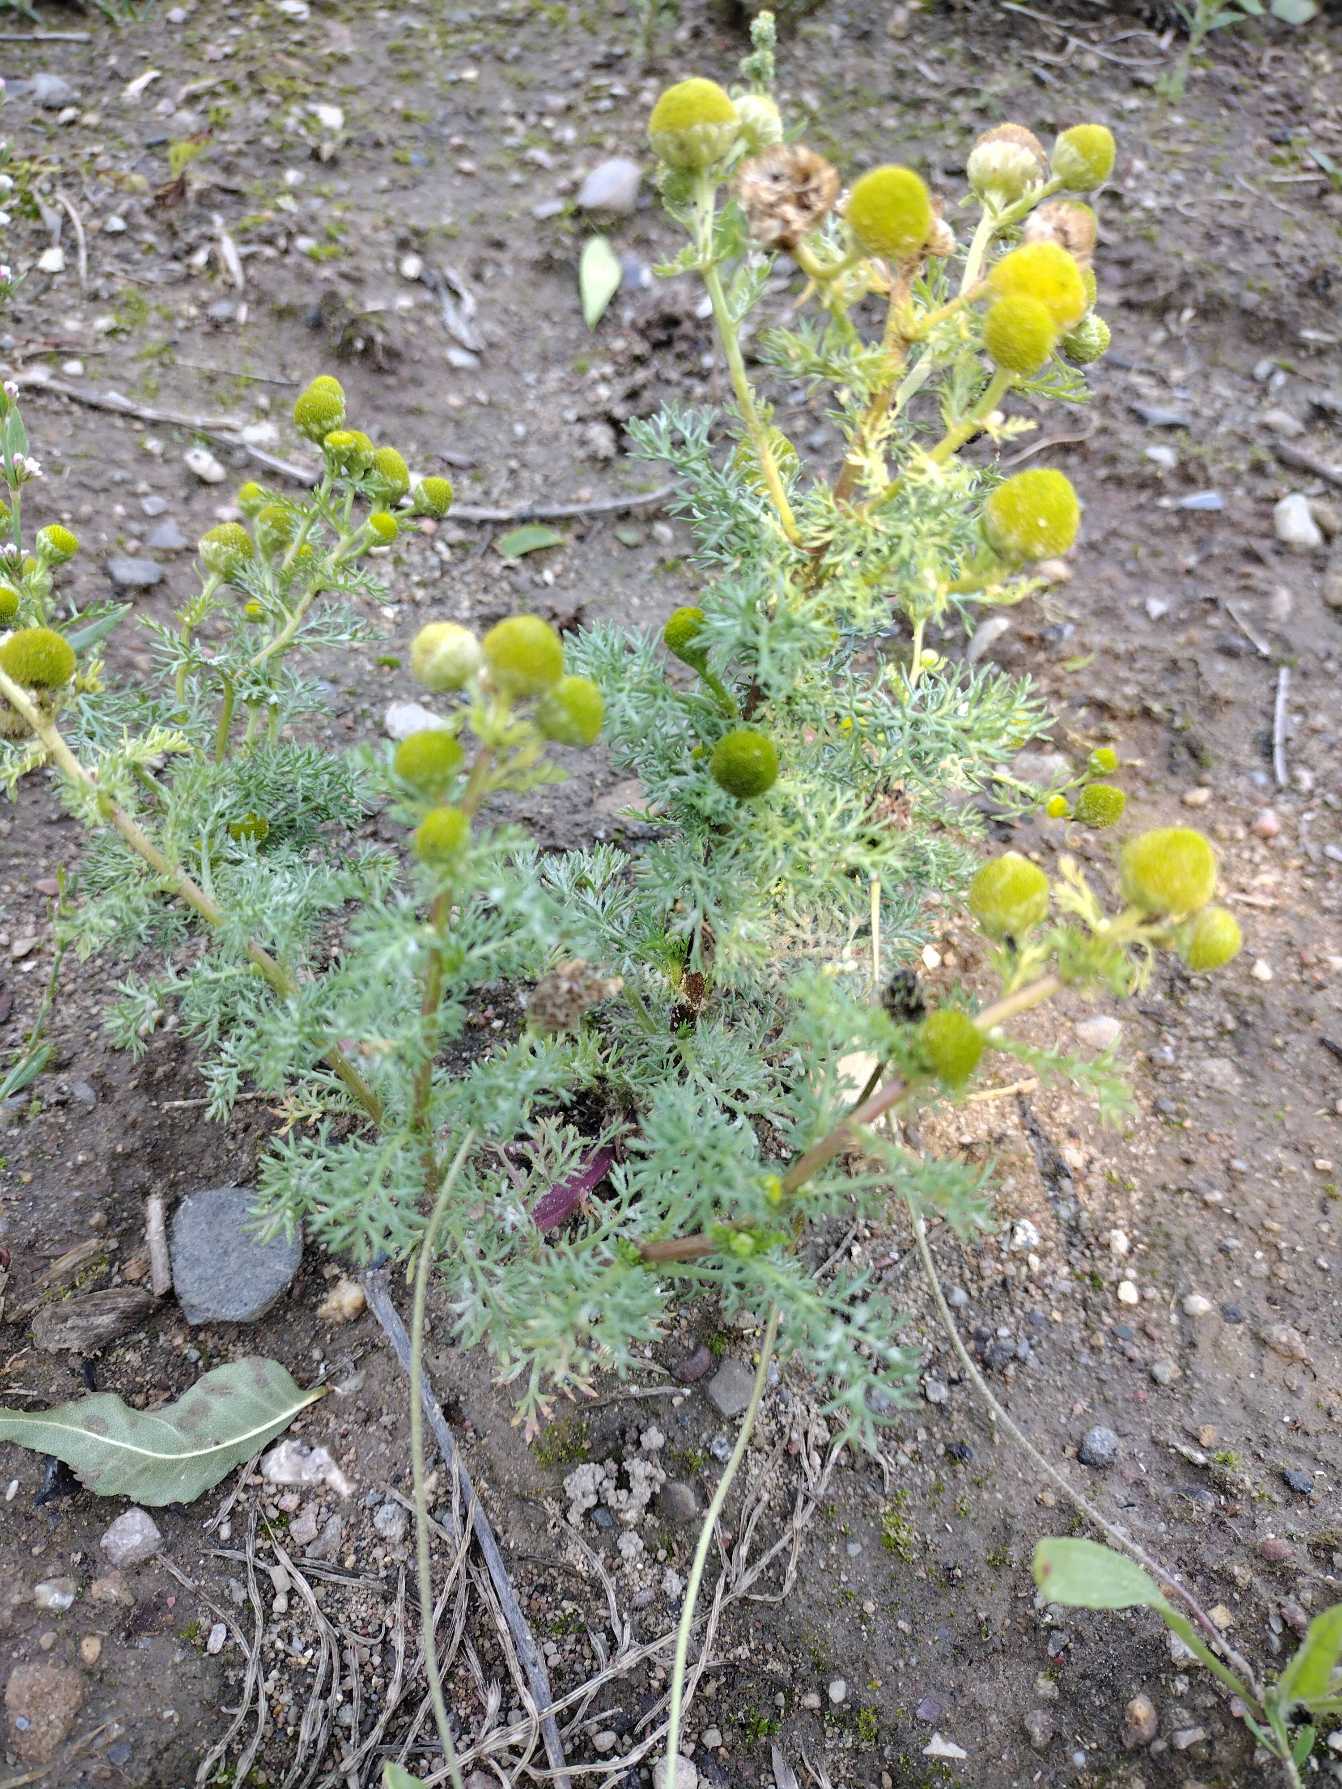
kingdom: Plantae
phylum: Tracheophyta
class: Magnoliopsida
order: Asterales
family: Asteraceae
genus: Matricaria
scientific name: Matricaria discoidea
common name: Skive-kamille
